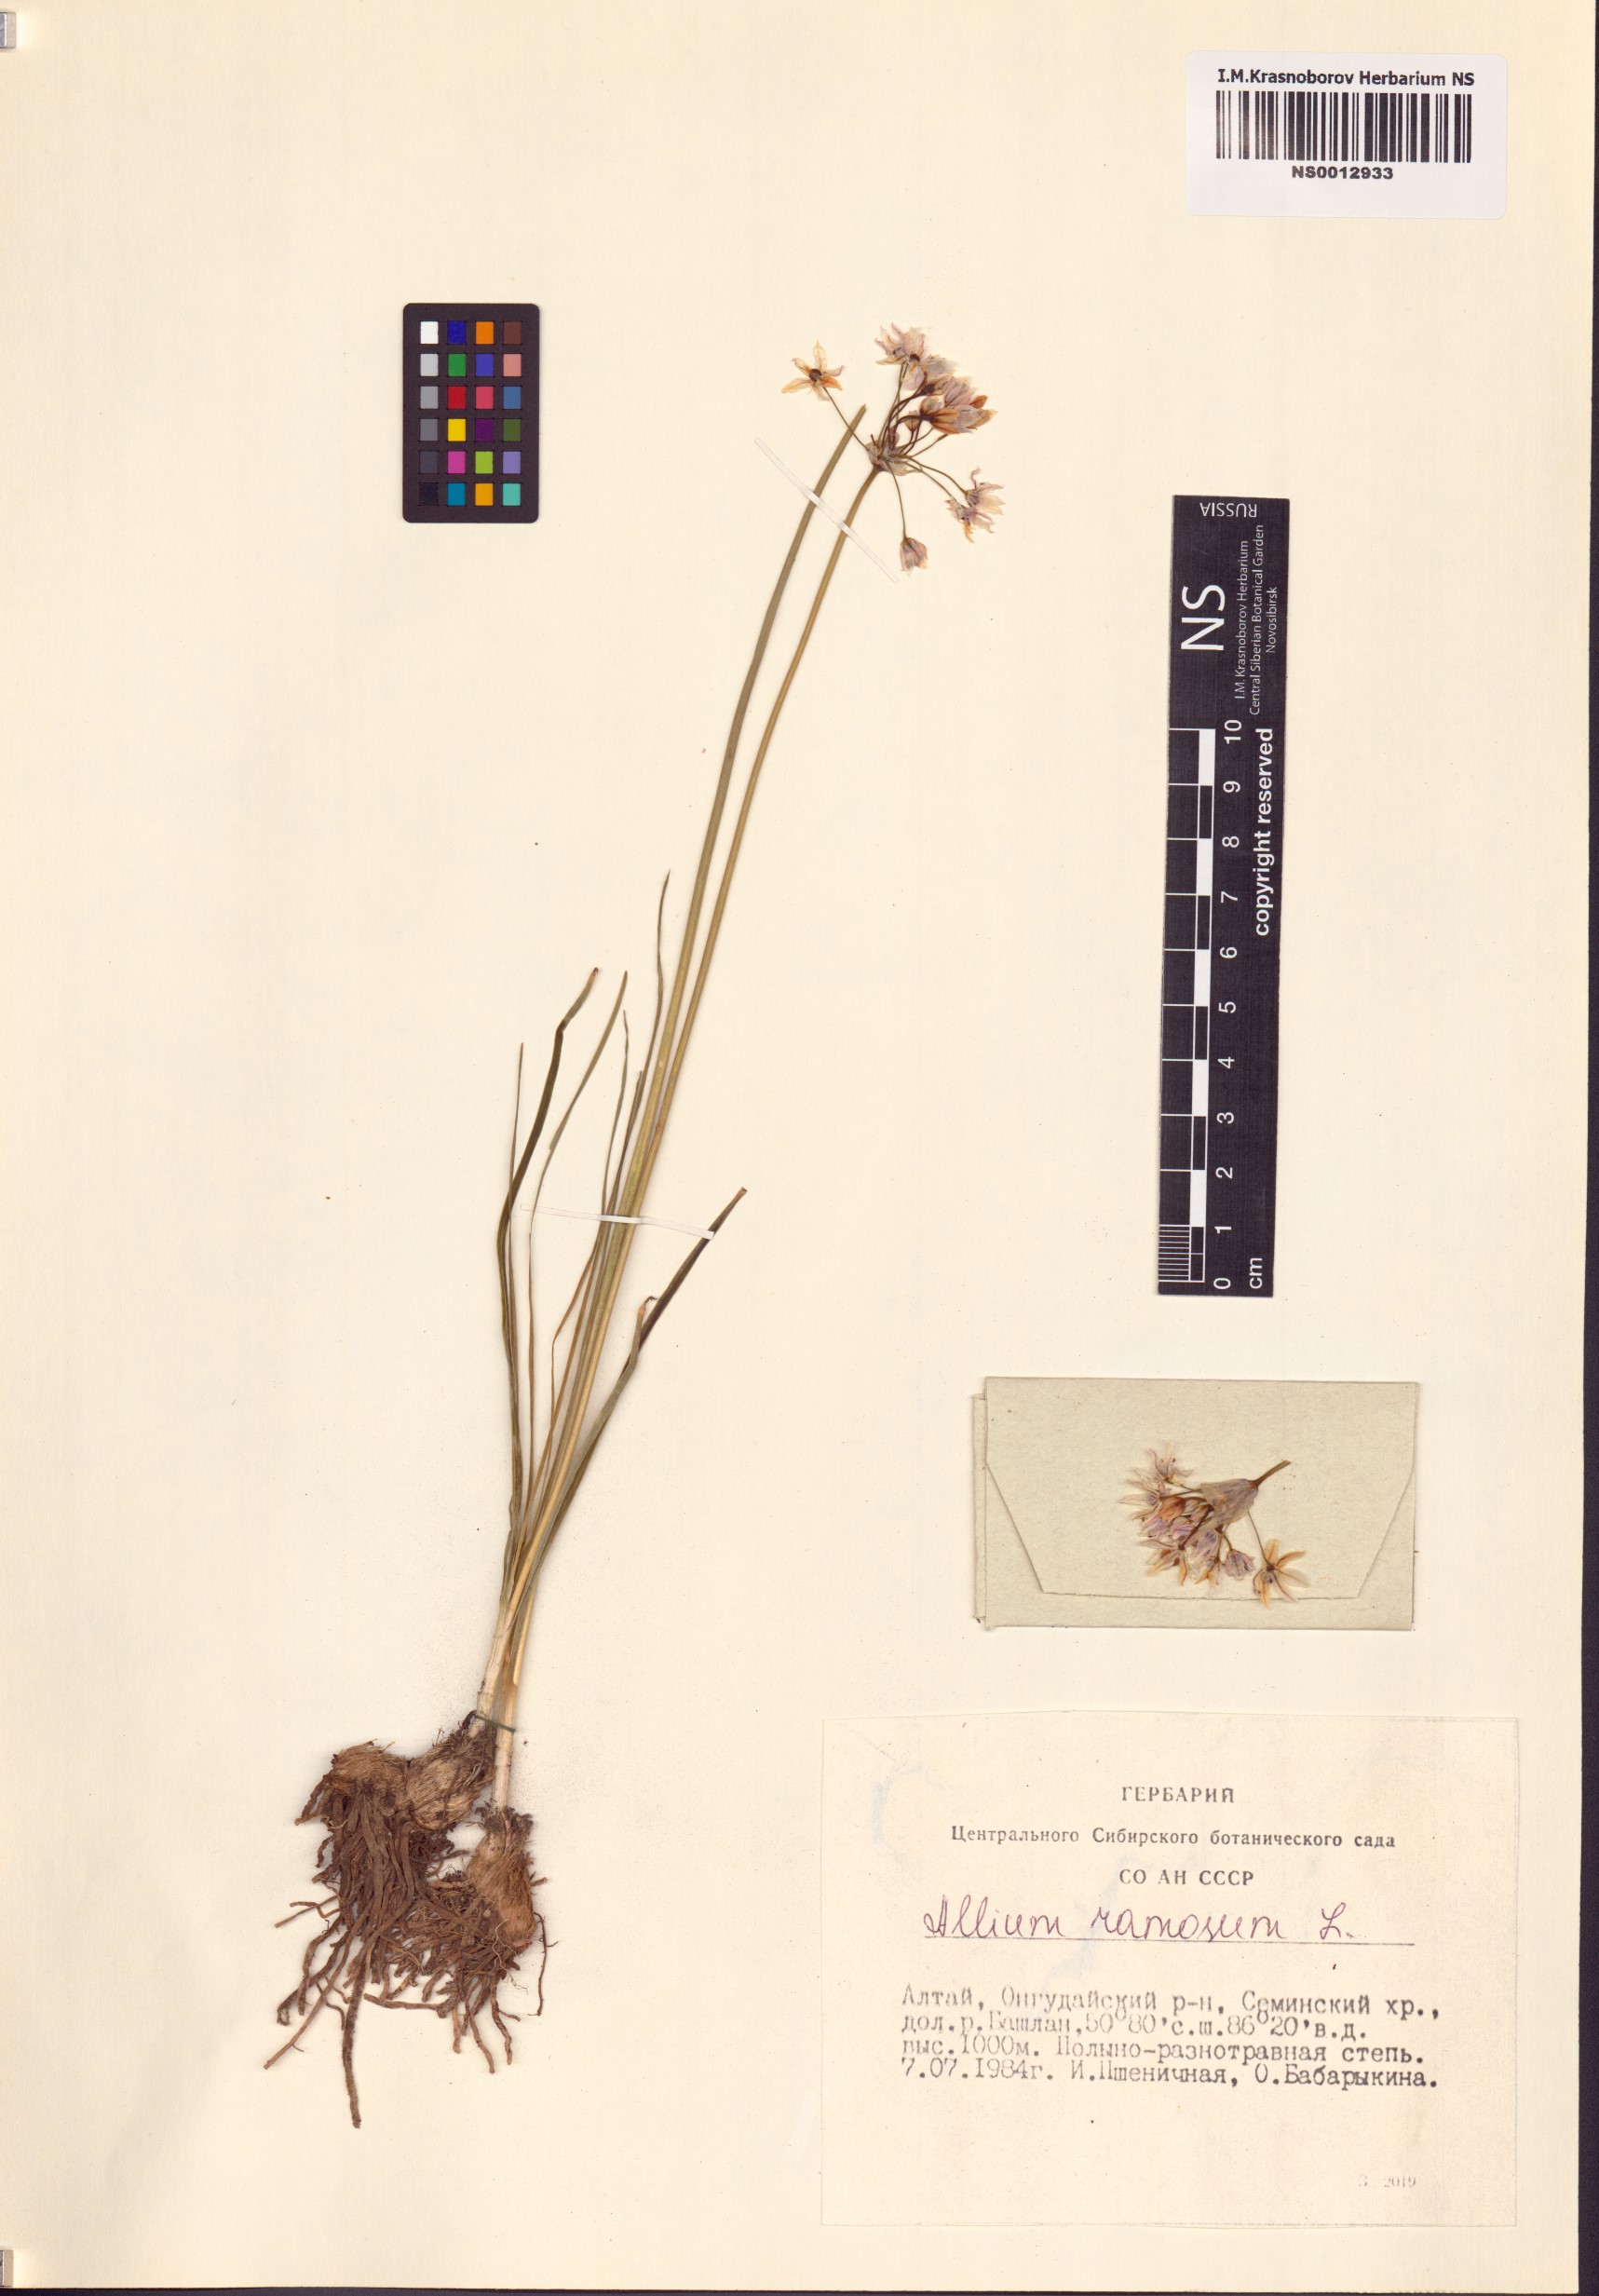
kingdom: Plantae
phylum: Tracheophyta
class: Liliopsida
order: Asparagales
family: Amaryllidaceae
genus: Allium
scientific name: Allium ramosum
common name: Fragrant garlic
